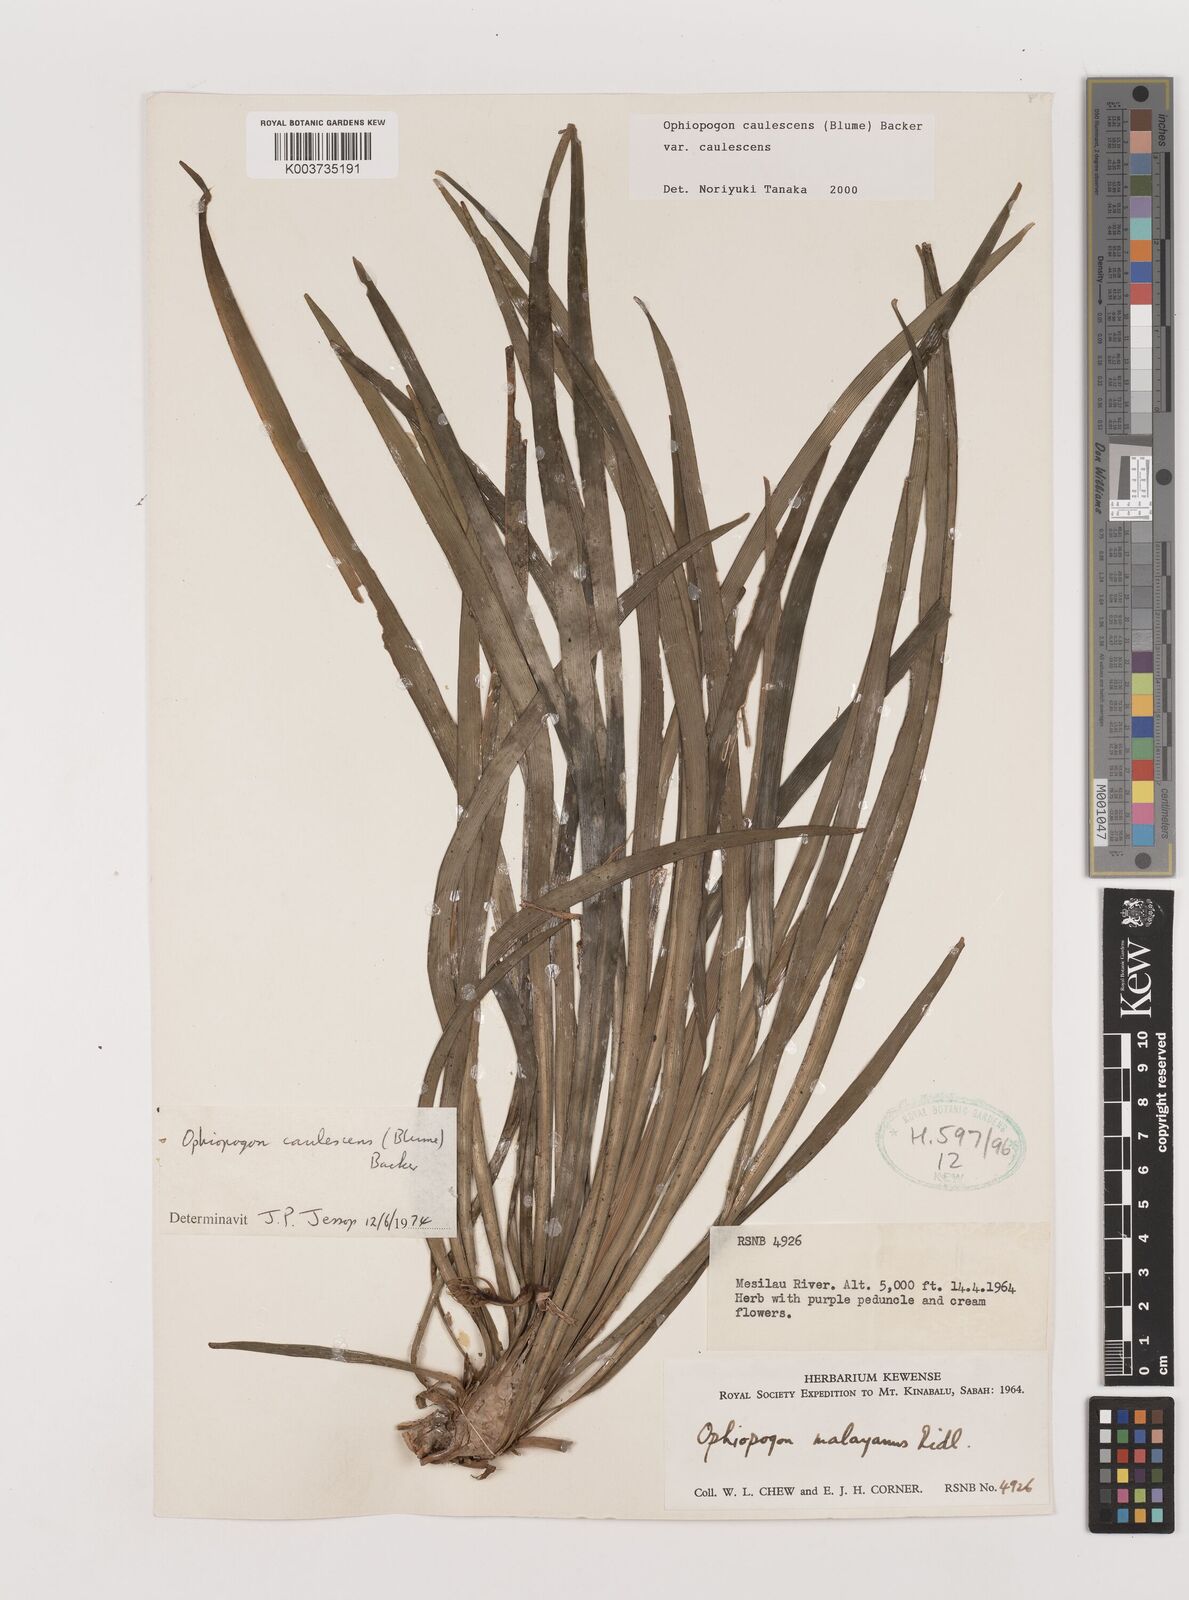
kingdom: Plantae
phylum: Tracheophyta
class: Liliopsida
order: Asparagales
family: Asparagaceae
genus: Ophiopogon
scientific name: Ophiopogon caulescens
